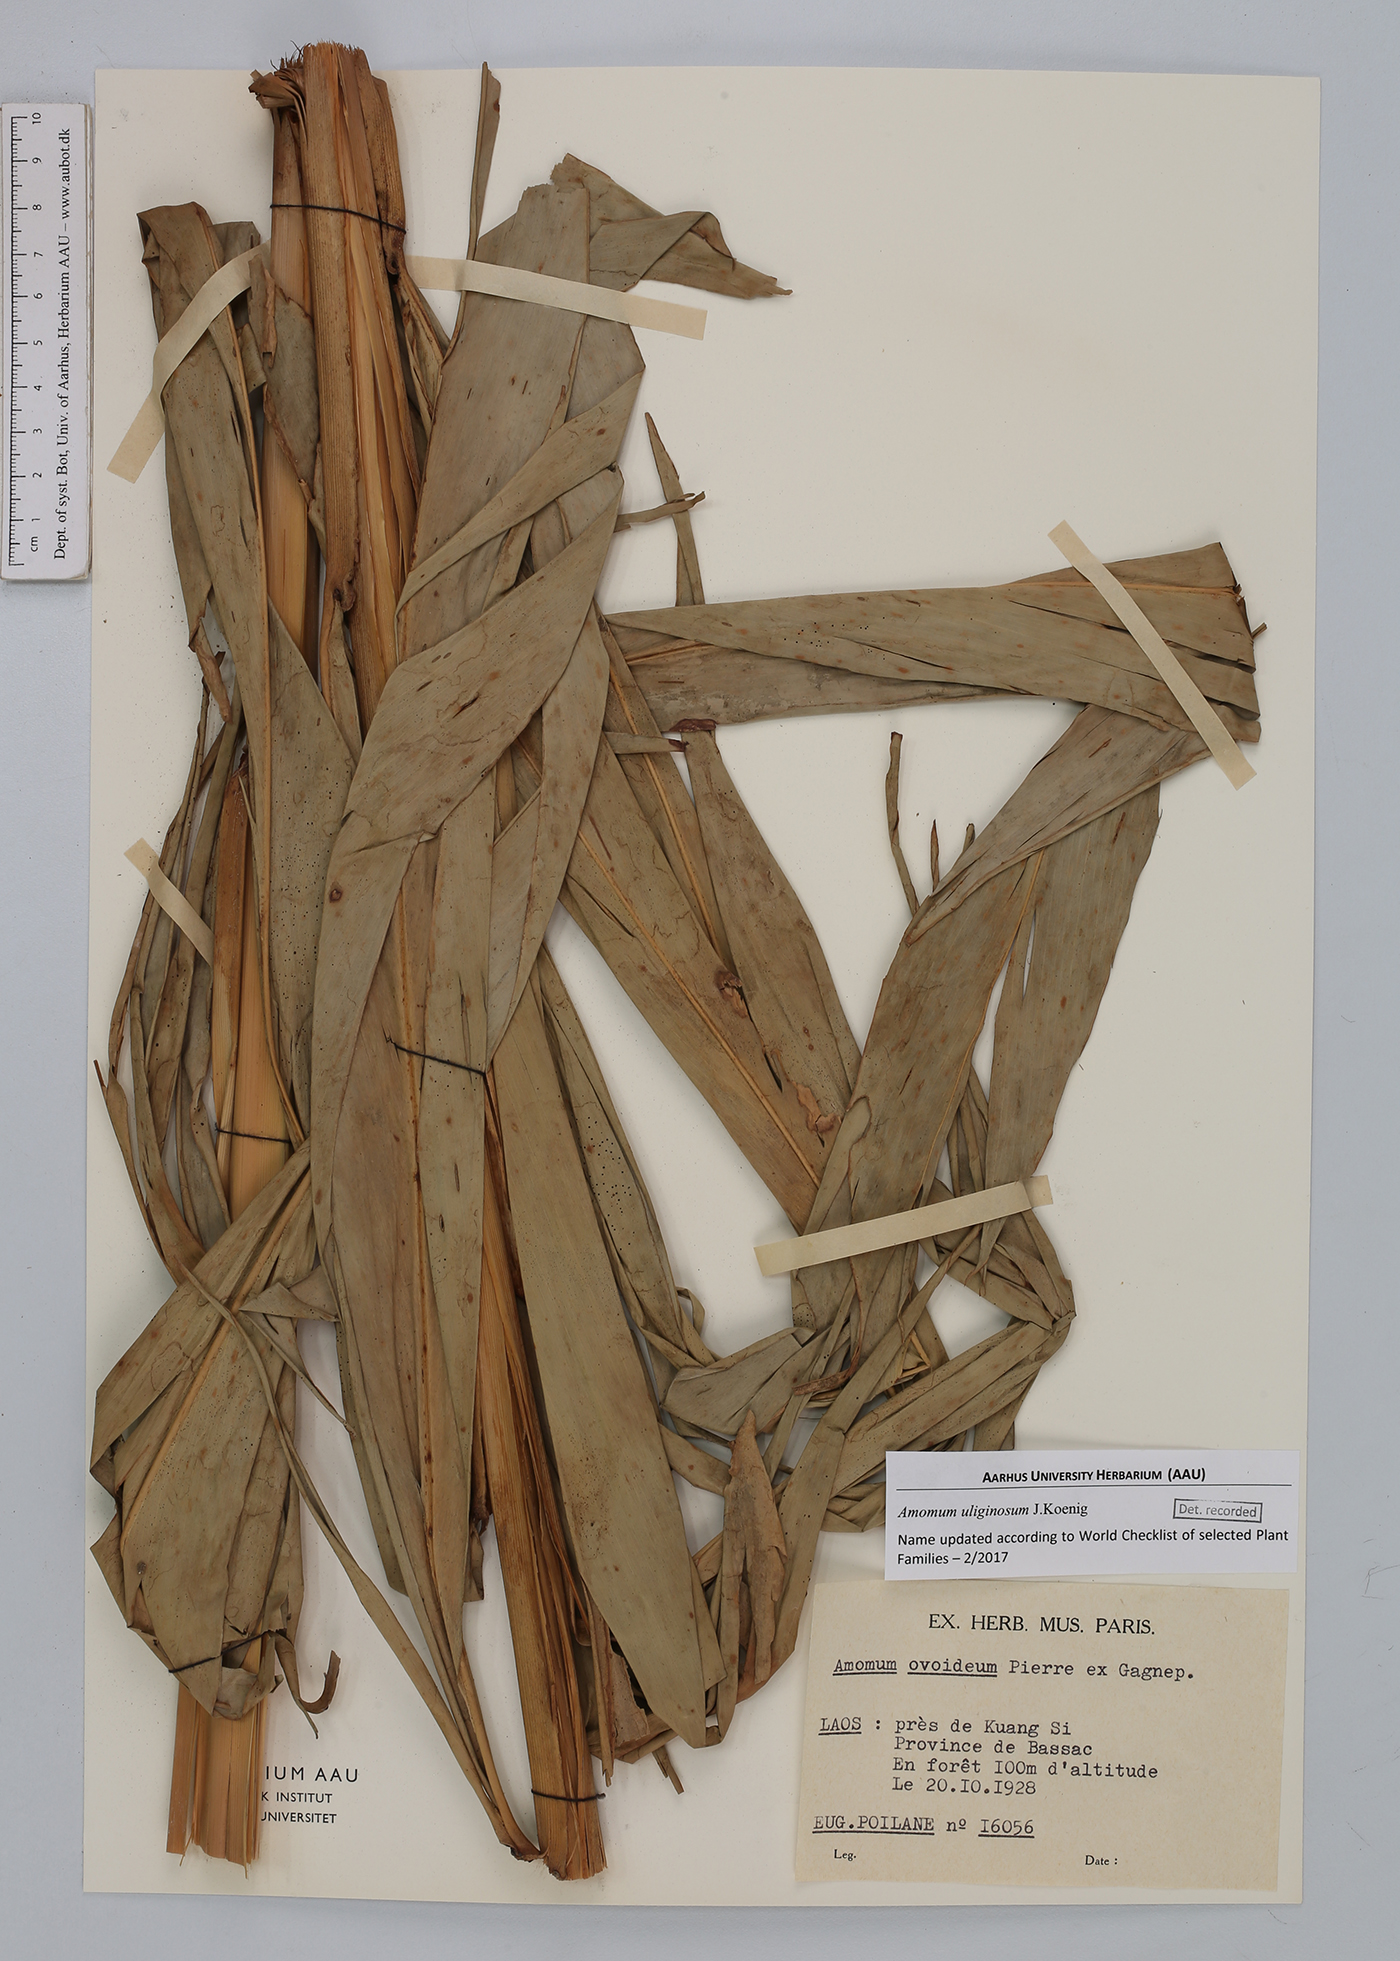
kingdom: Plantae
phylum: Tracheophyta
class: Liliopsida
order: Zingiberales
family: Zingiberaceae
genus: Wurfbainia
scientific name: Wurfbainia uliginosa
